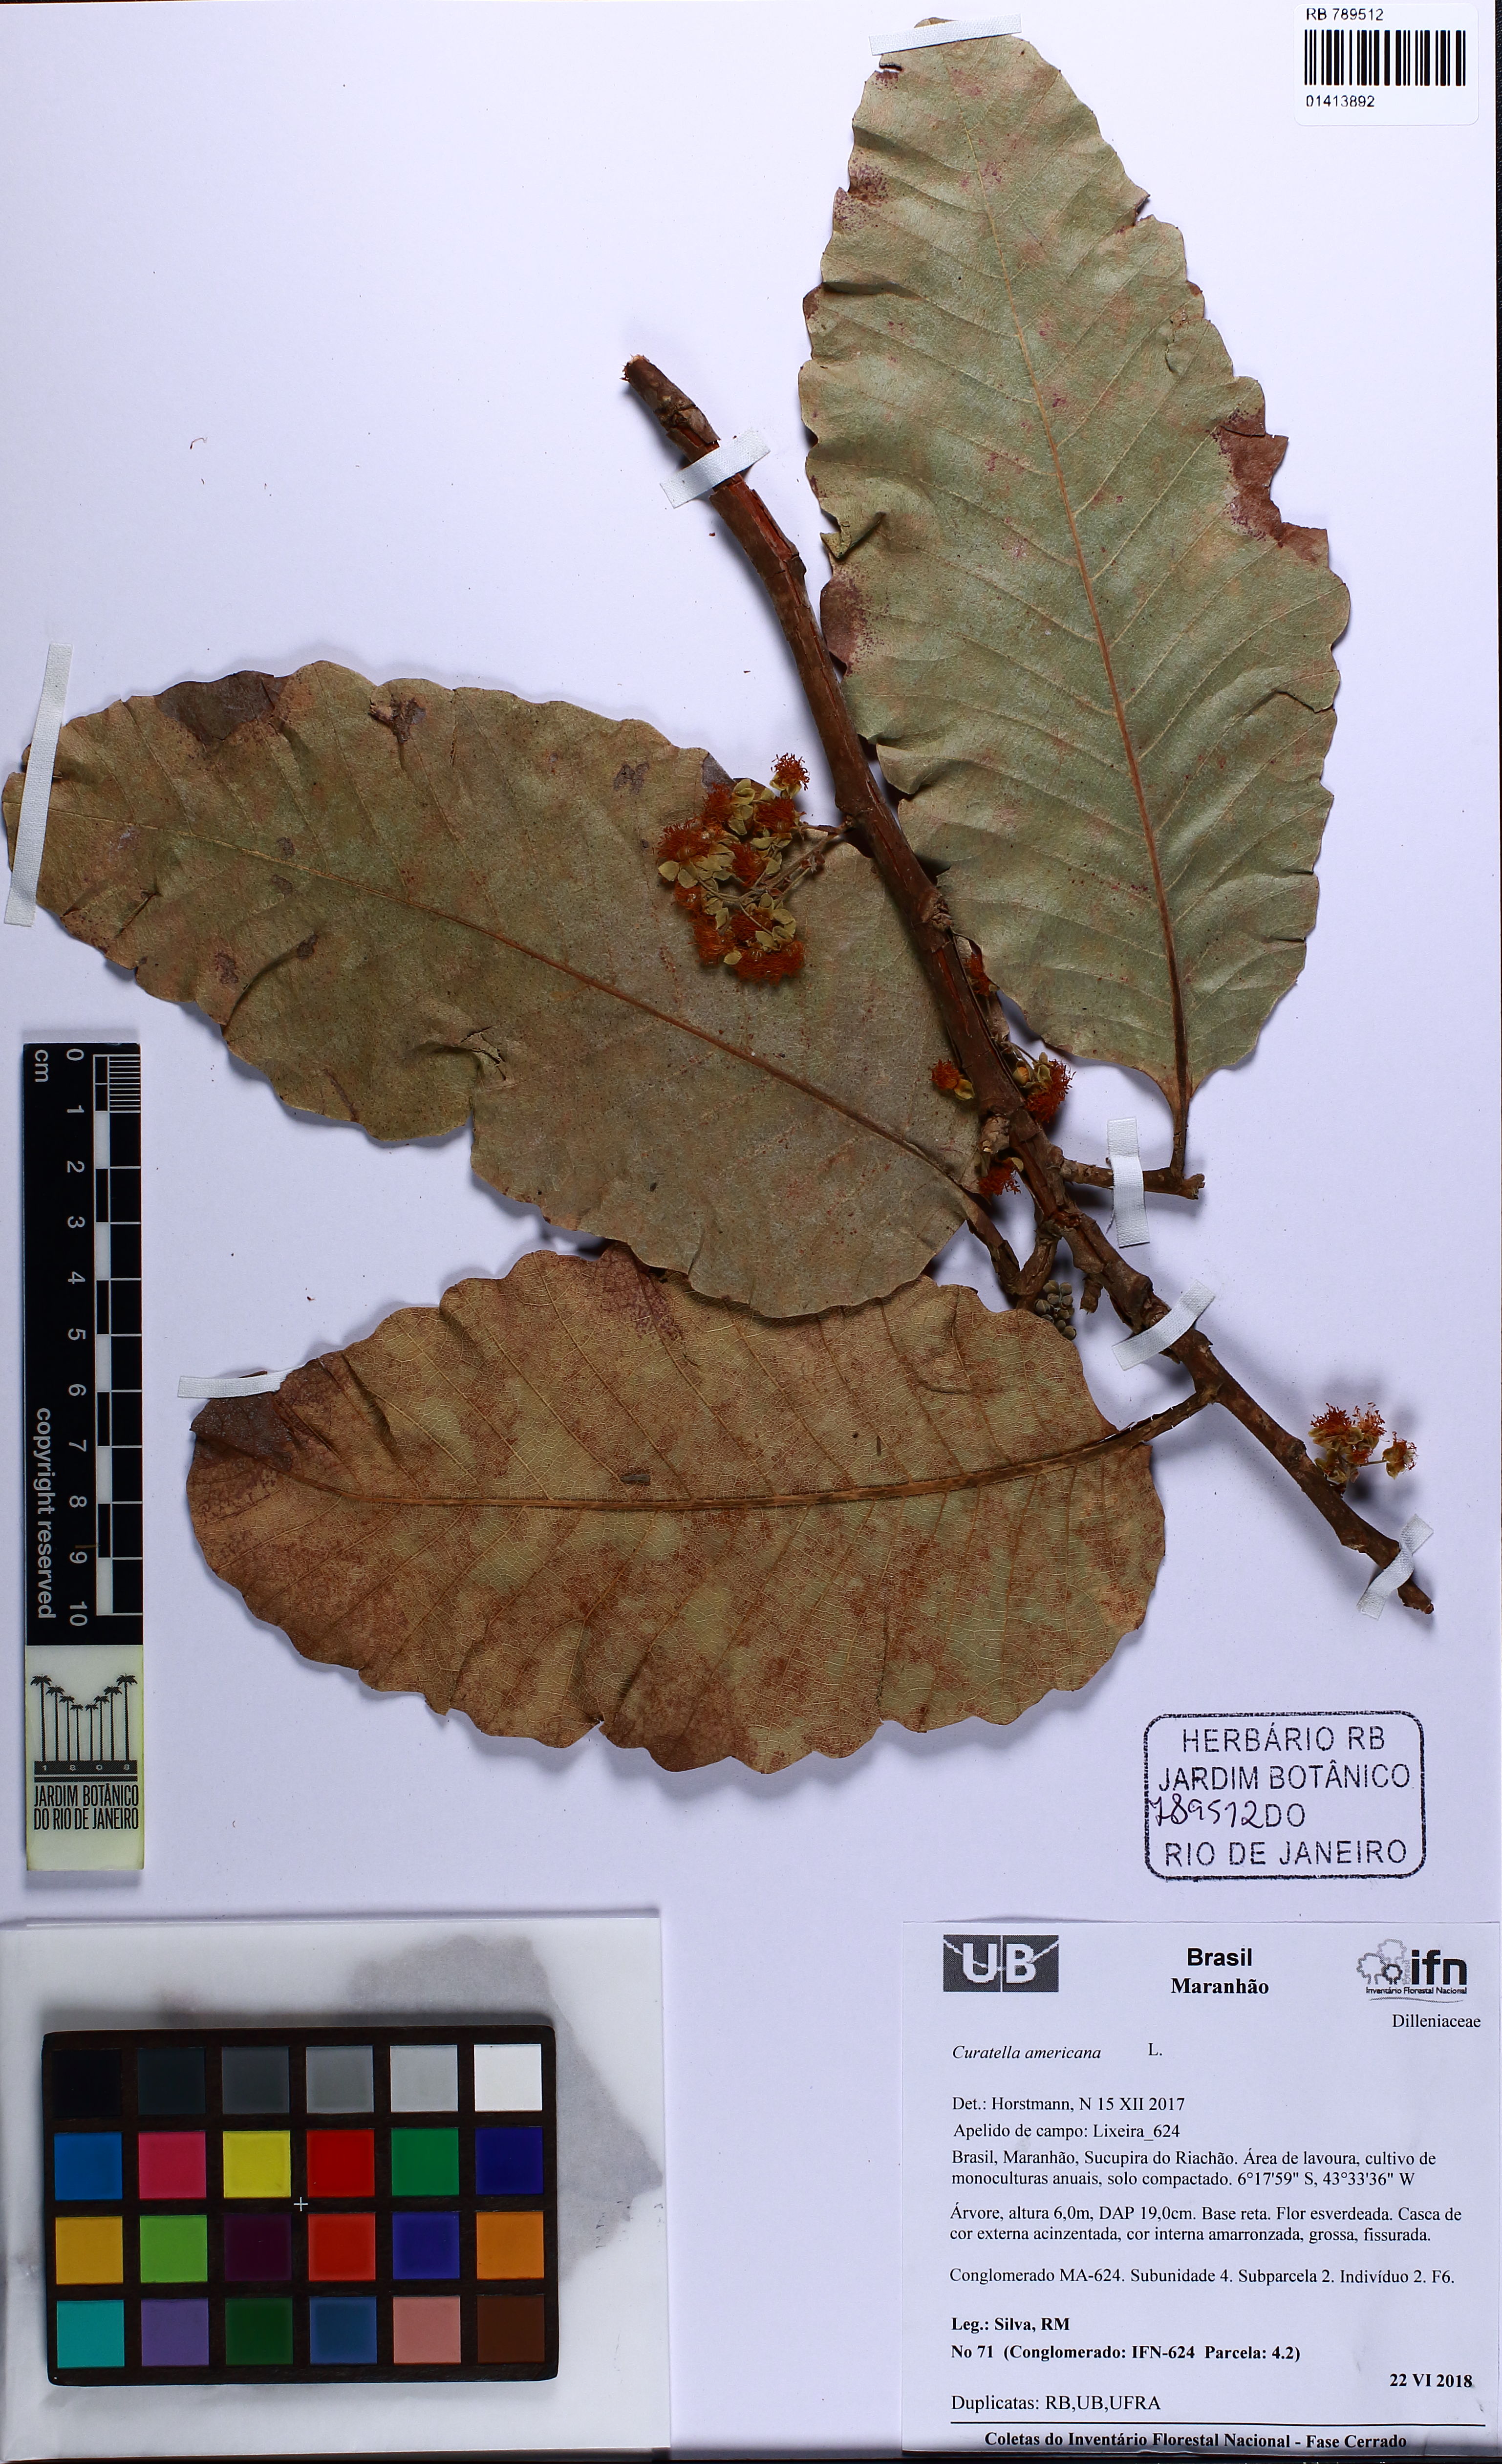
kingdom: Plantae
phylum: Tracheophyta
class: Magnoliopsida
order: Dilleniales
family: Dilleniaceae
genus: Curatella
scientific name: Curatella americana
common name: Sandpaper tree
